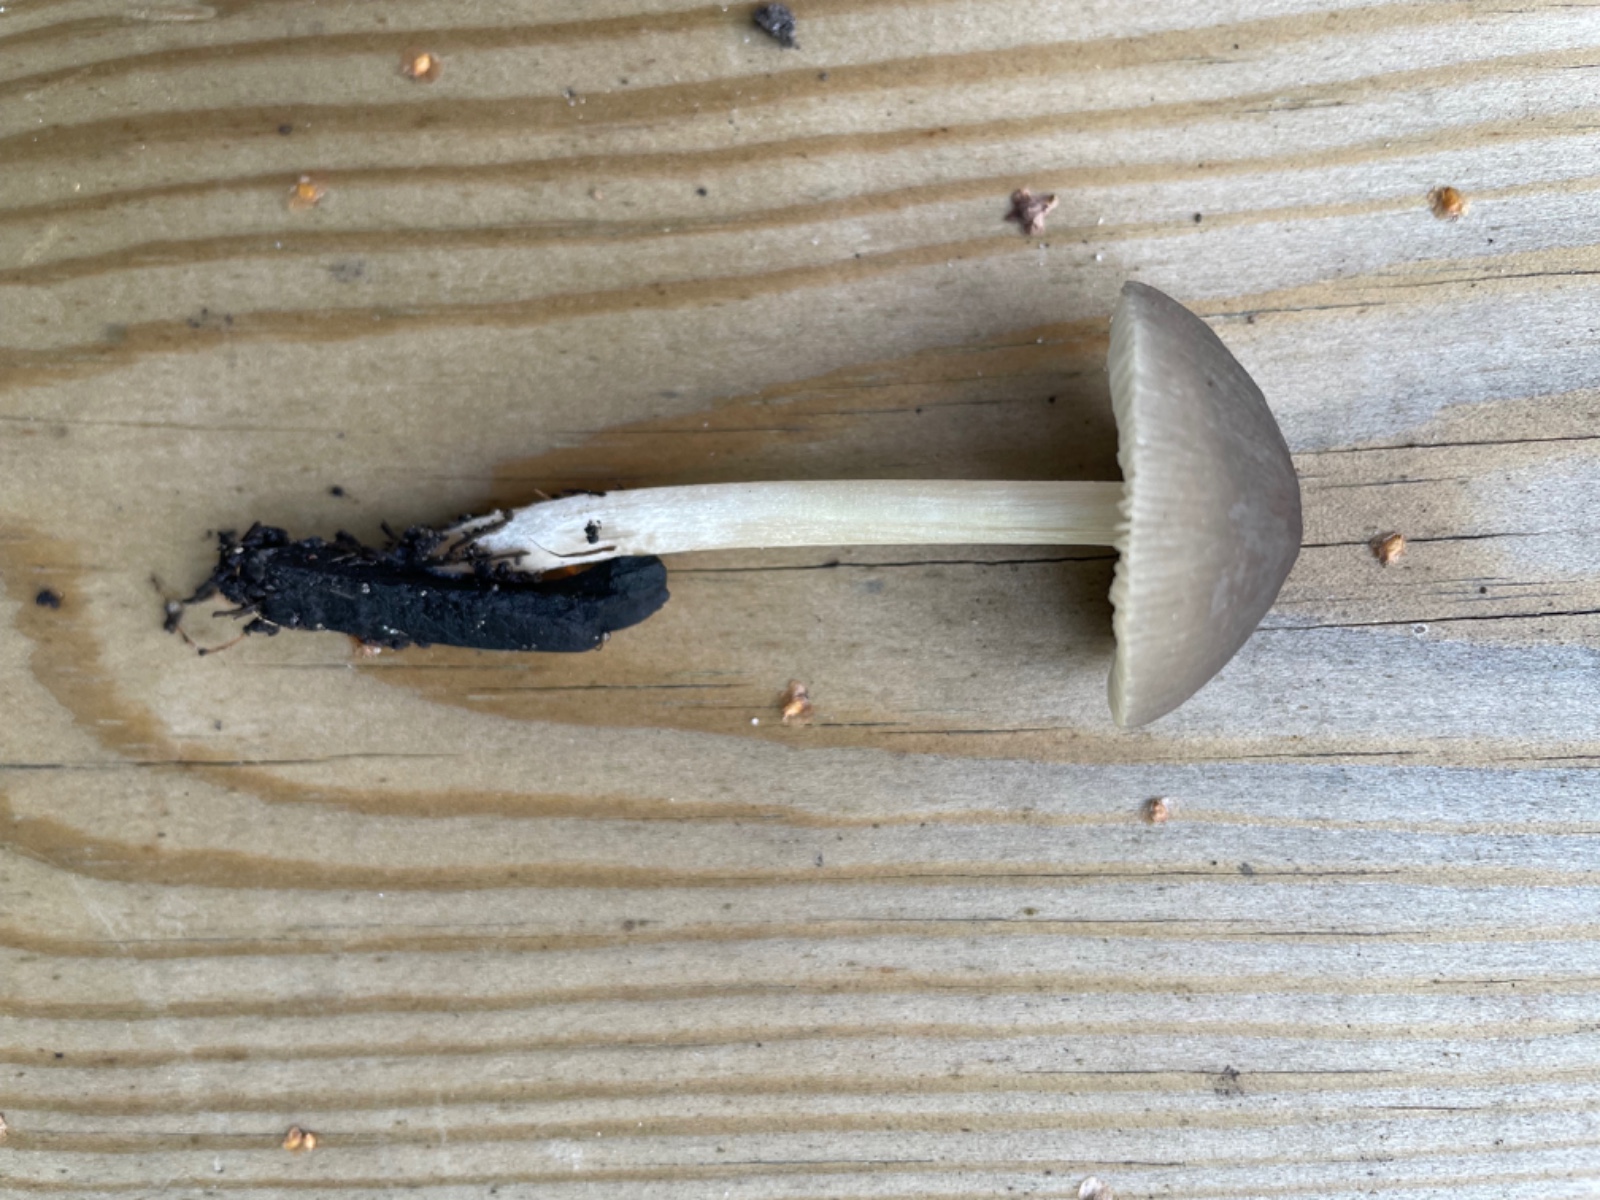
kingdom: Fungi
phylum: Basidiomycota
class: Agaricomycetes
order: Agaricales
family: Pluteaceae
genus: Pluteus
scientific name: Pluteus
